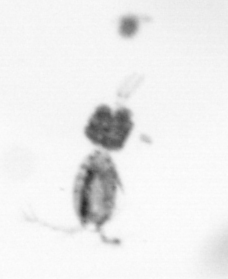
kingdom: Animalia
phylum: Arthropoda
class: Copepoda
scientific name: Copepoda
